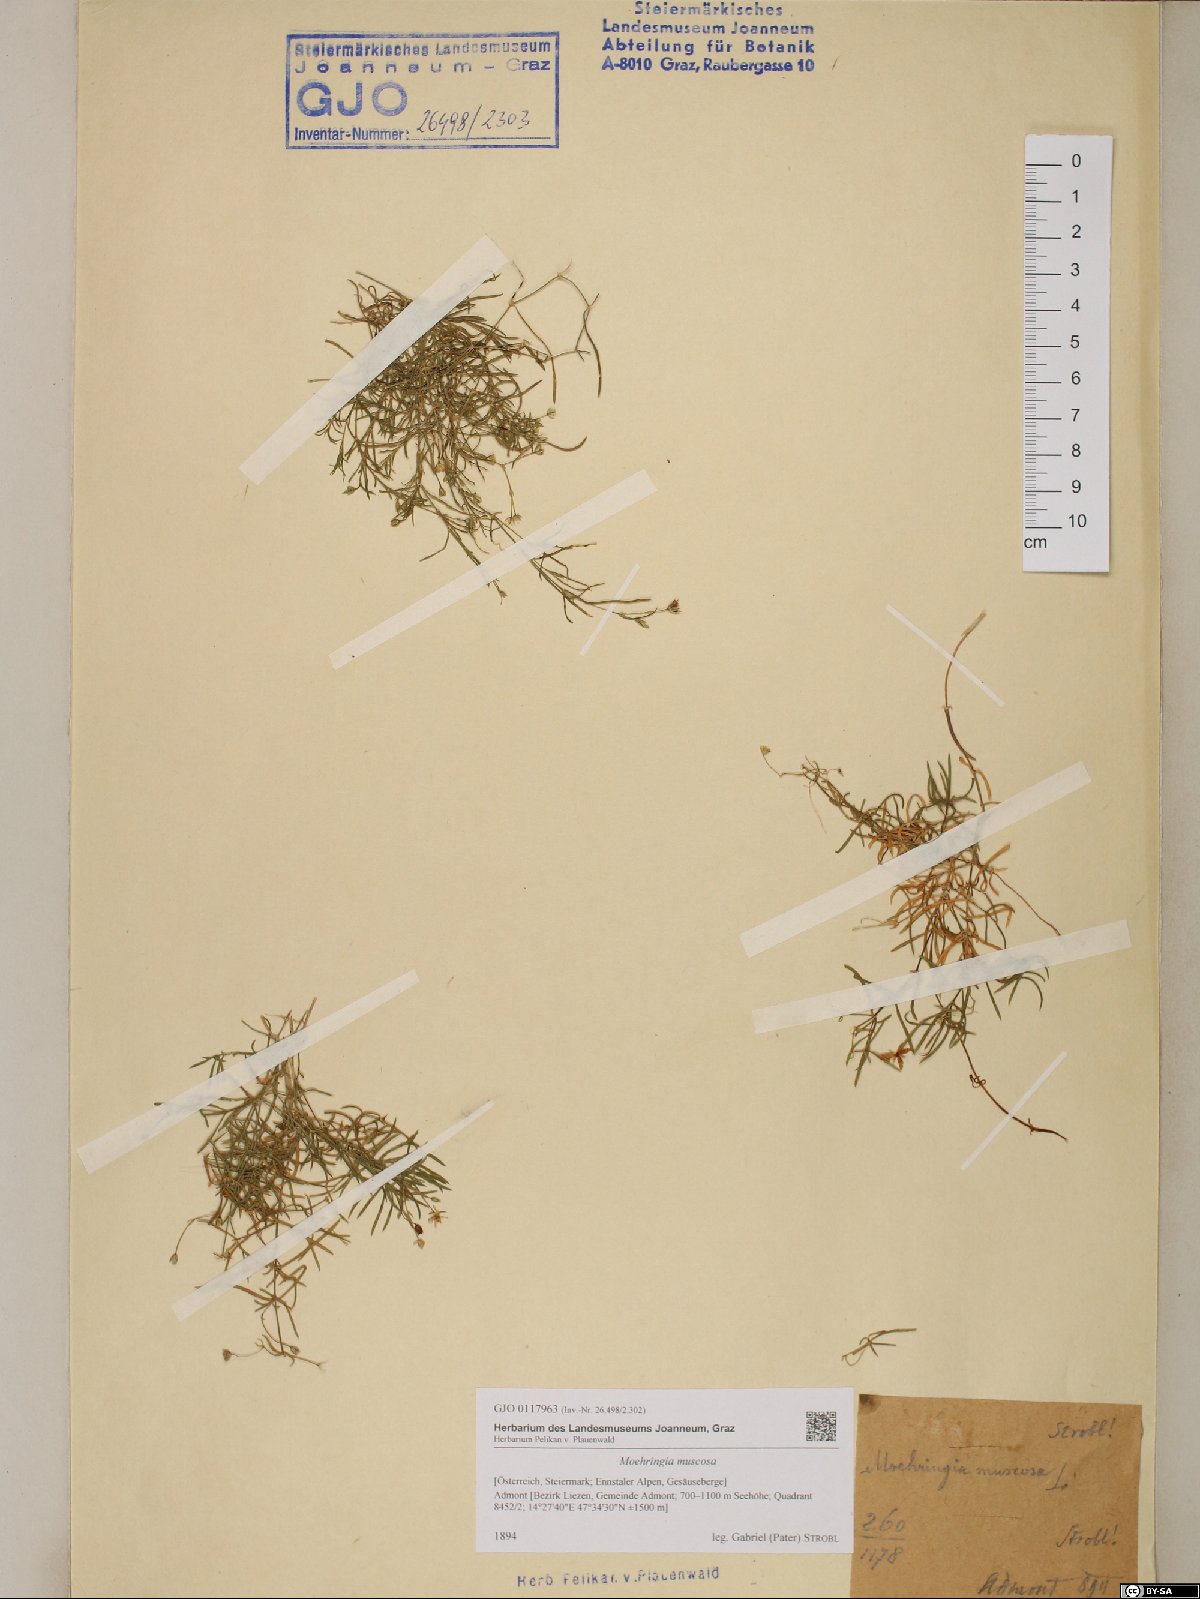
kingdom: Plantae
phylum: Tracheophyta
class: Magnoliopsida
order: Caryophyllales
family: Caryophyllaceae
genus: Moehringia
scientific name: Moehringia muscosa
